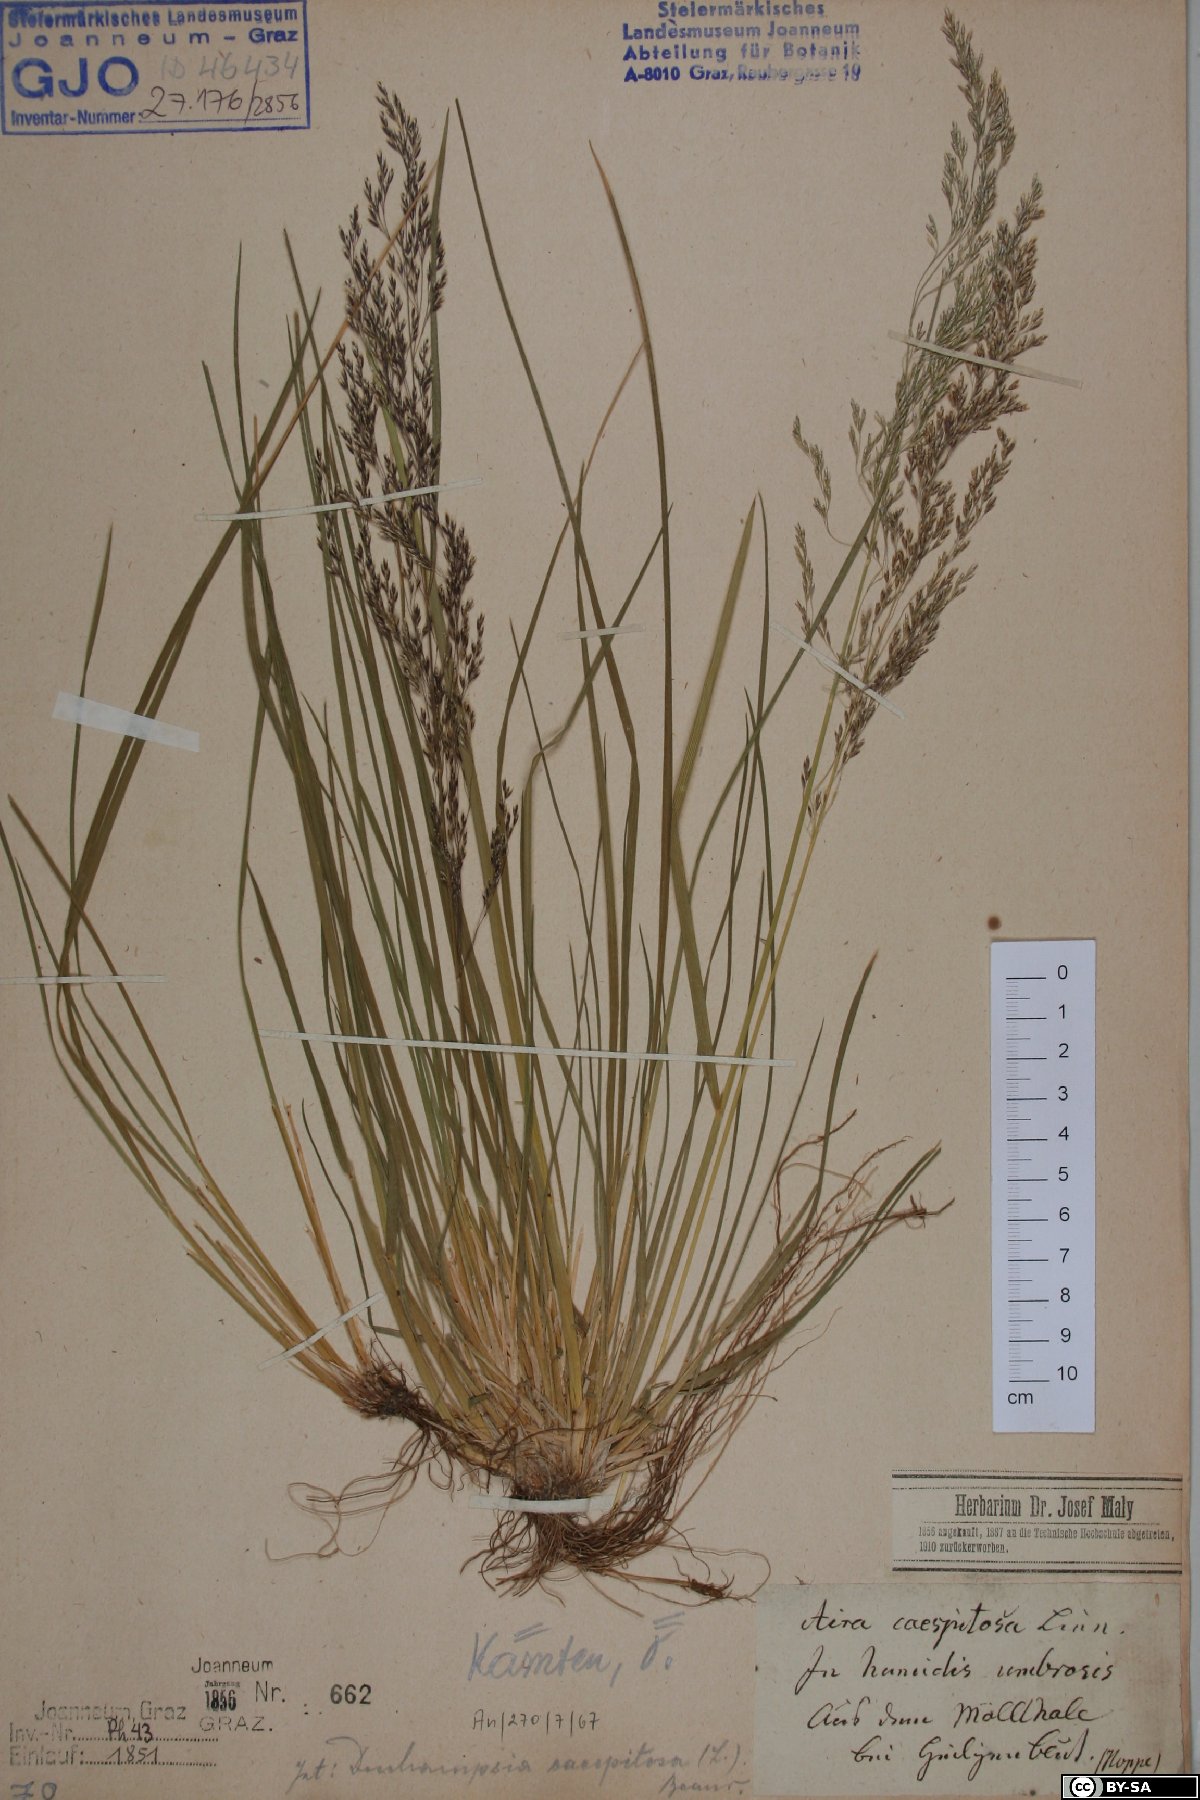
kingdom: Plantae
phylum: Tracheophyta
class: Liliopsida
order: Poales
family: Poaceae
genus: Deschampsia
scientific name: Deschampsia cespitosa
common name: Tufted hair-grass
